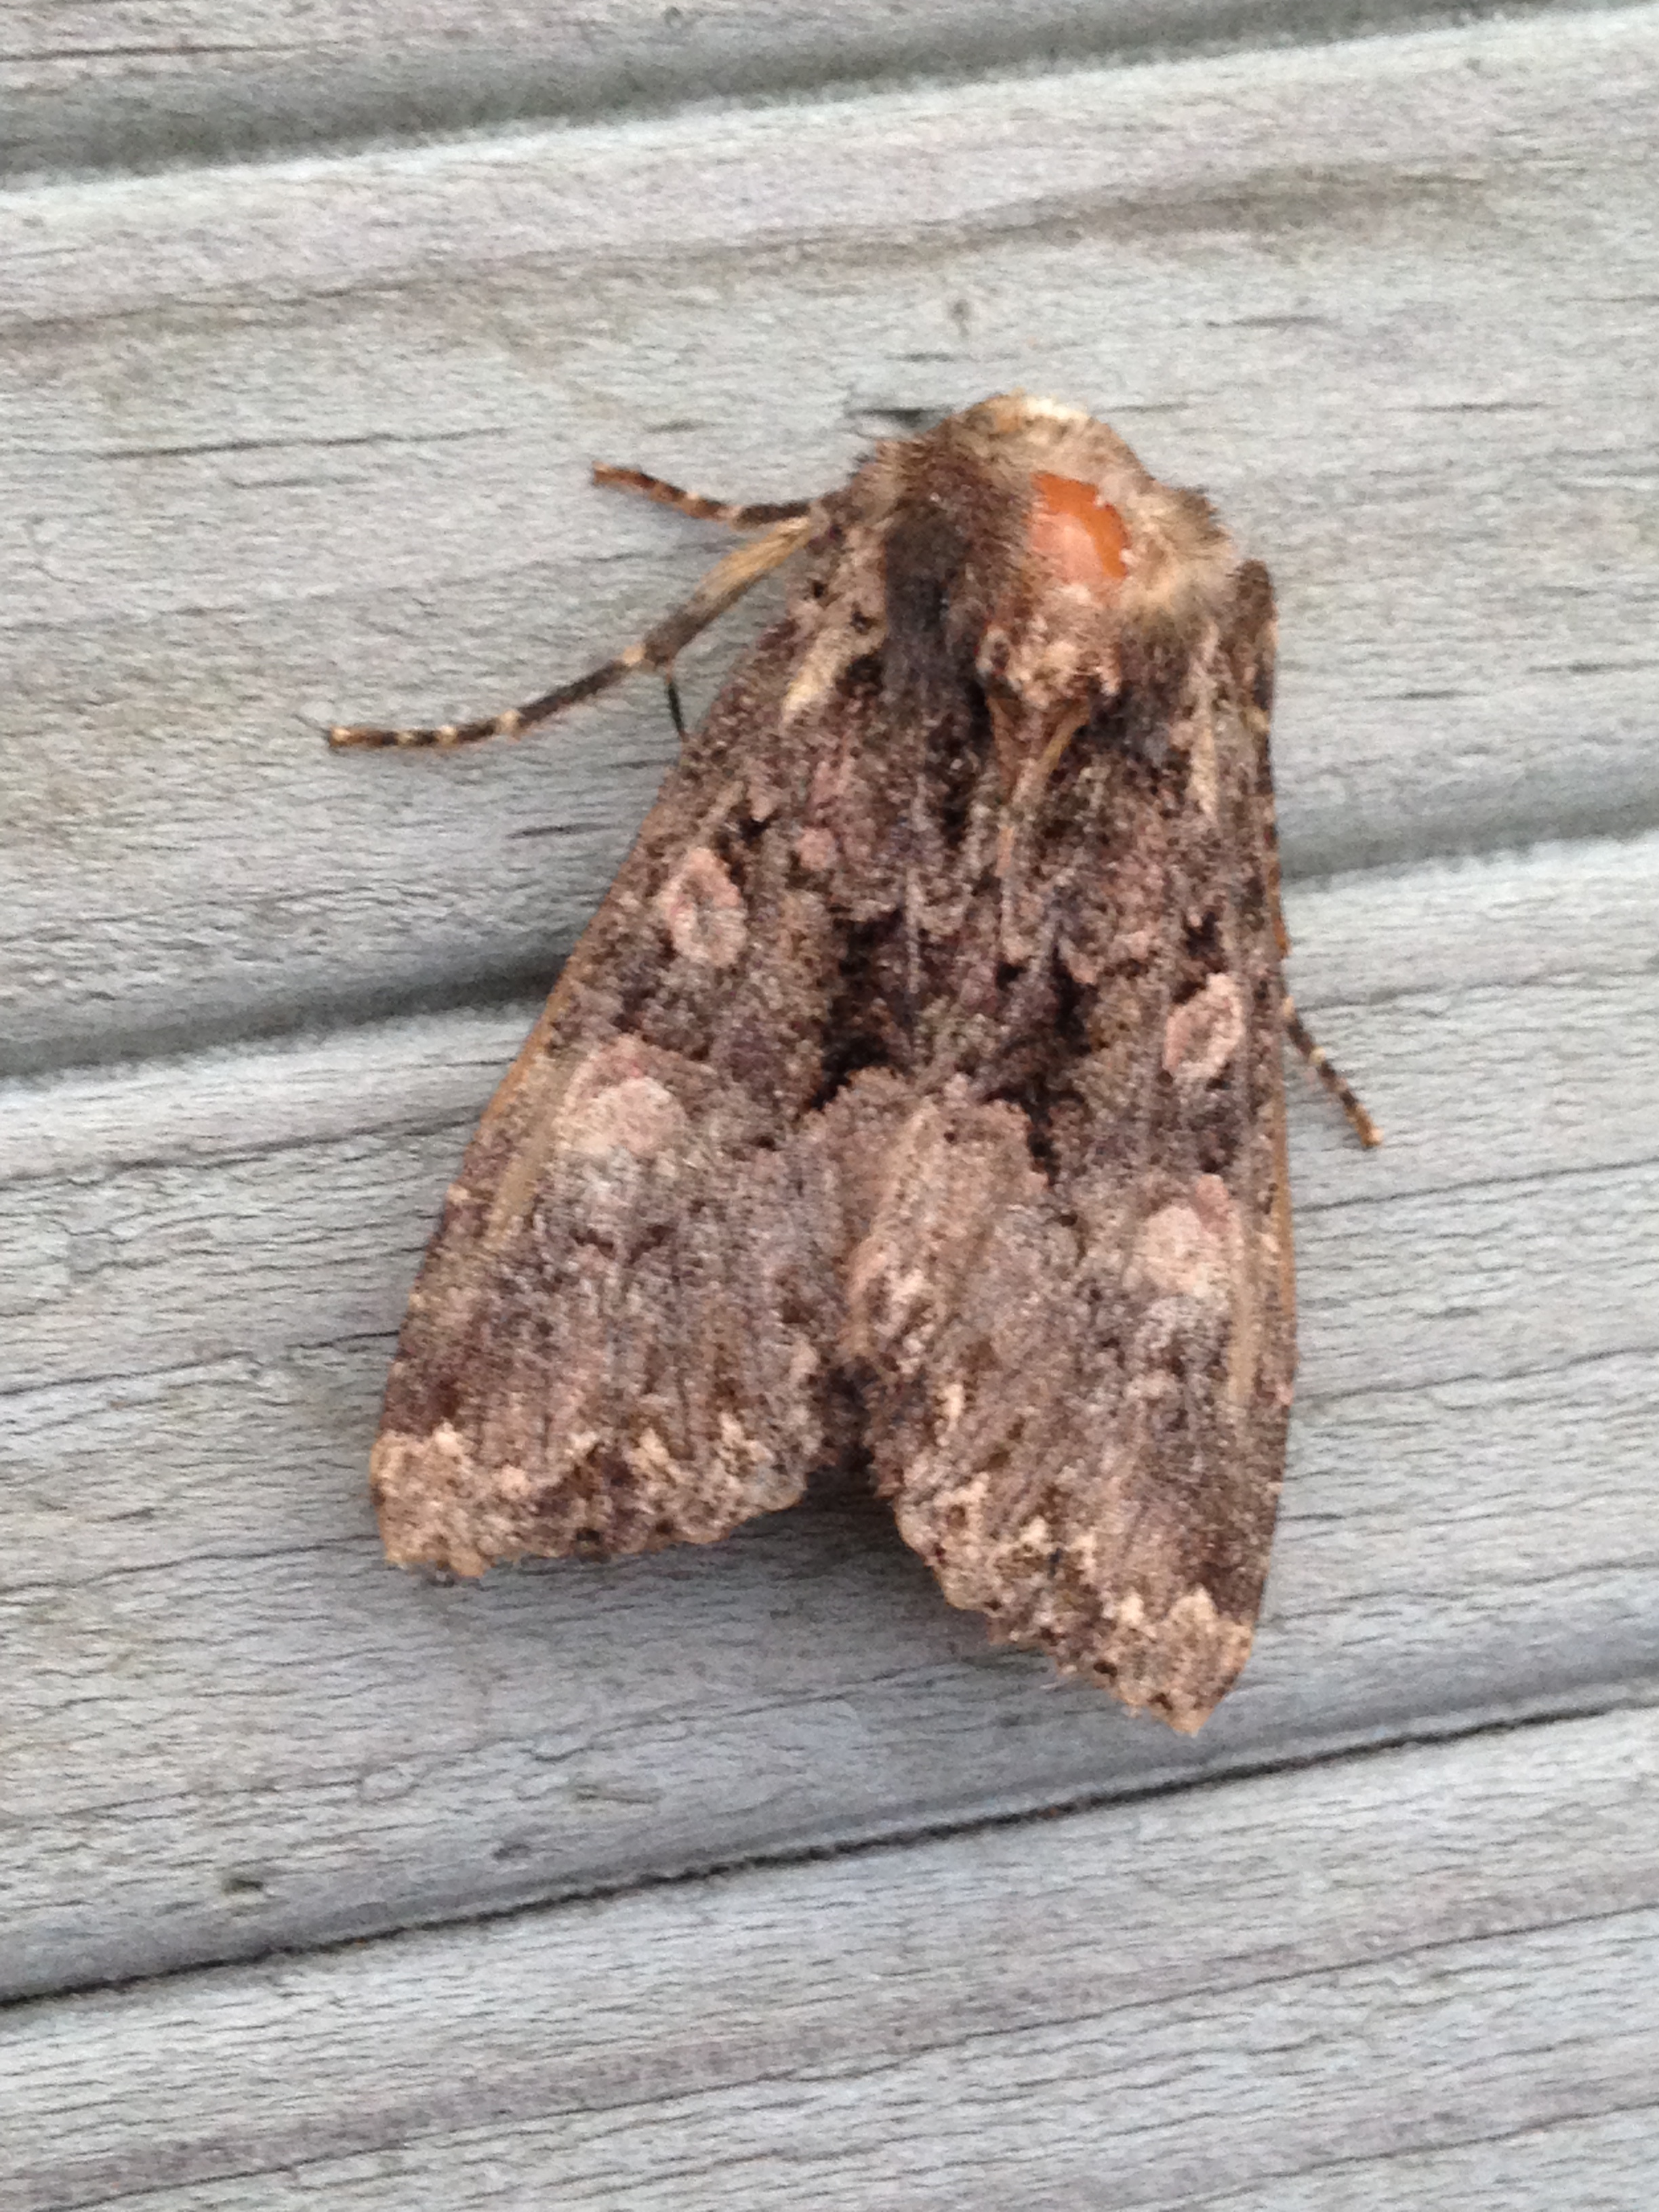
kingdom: Animalia
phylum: Arthropoda
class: Insecta
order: Lepidoptera
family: Noctuidae
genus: Mniotype
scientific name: Mniotype satura
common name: Beautiful arches
